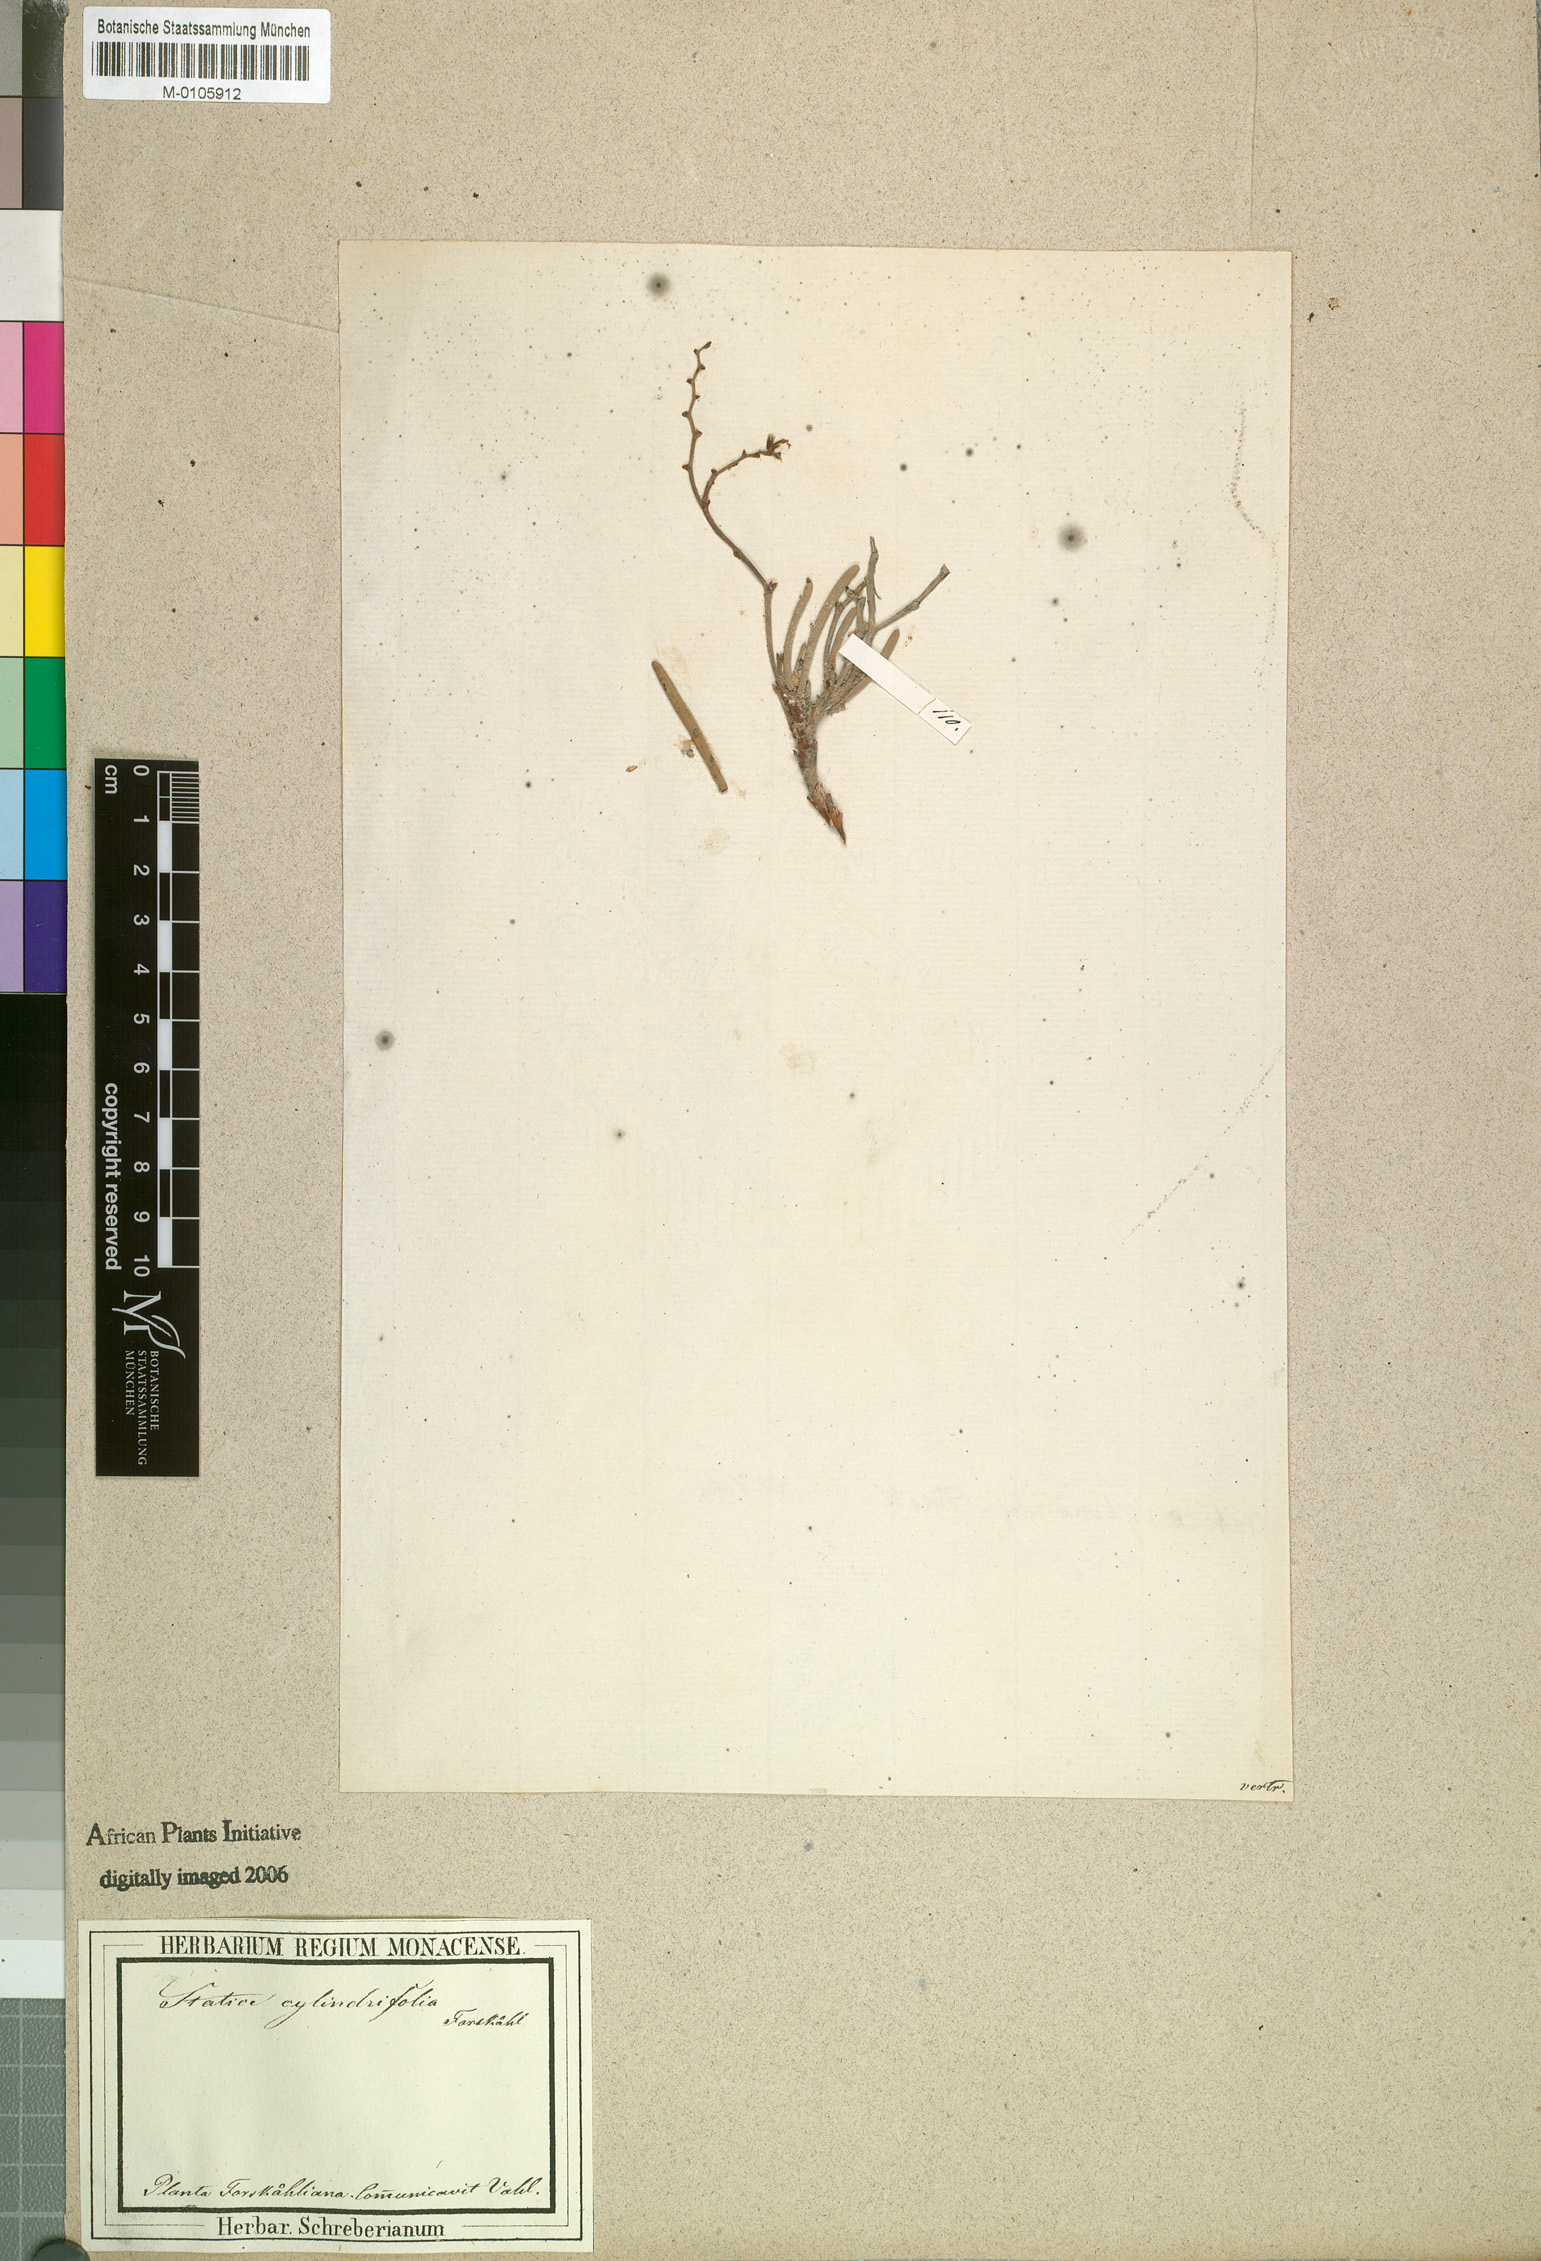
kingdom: Plantae
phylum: Tracheophyta
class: Magnoliopsida
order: Caryophyllales
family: Plumbaginaceae
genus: Limonium
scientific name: Limonium cylindrifolium
